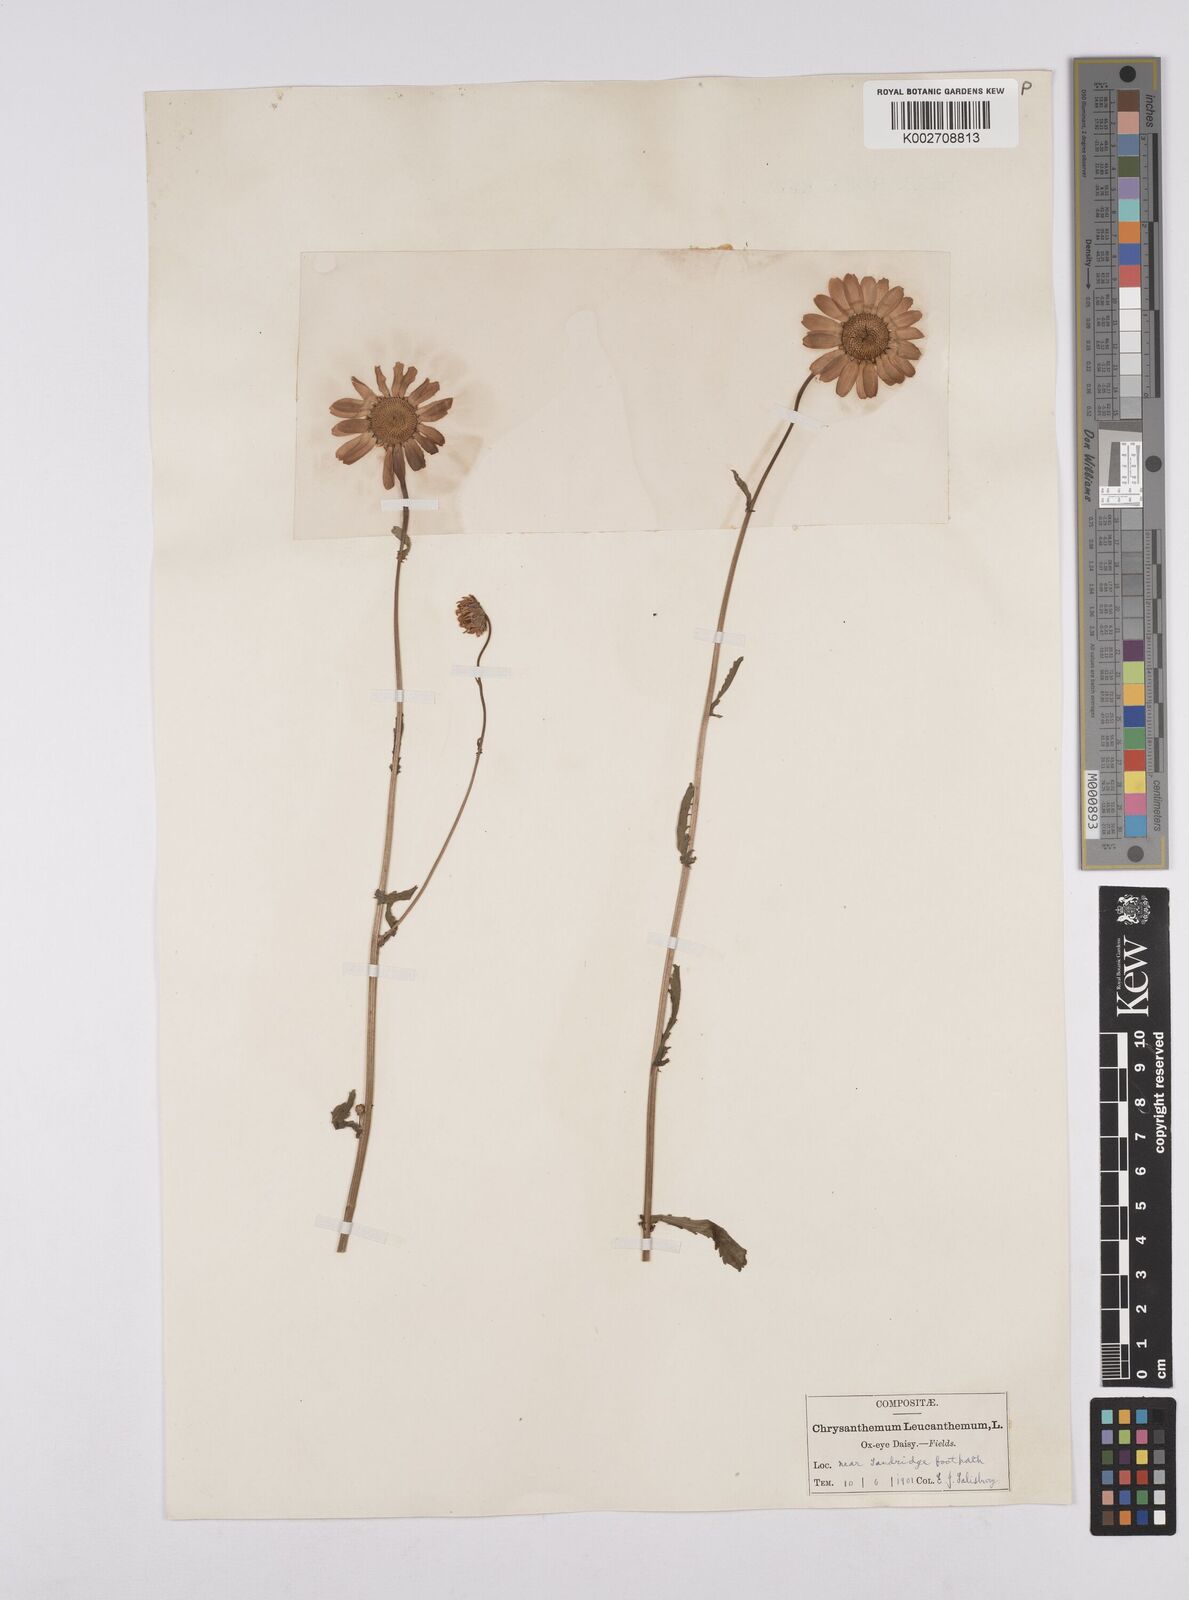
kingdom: Plantae
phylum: Tracheophyta
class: Magnoliopsida
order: Asterales
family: Asteraceae
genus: Leucanthemum
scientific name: Leucanthemum vulgare
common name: Oxeye daisy
